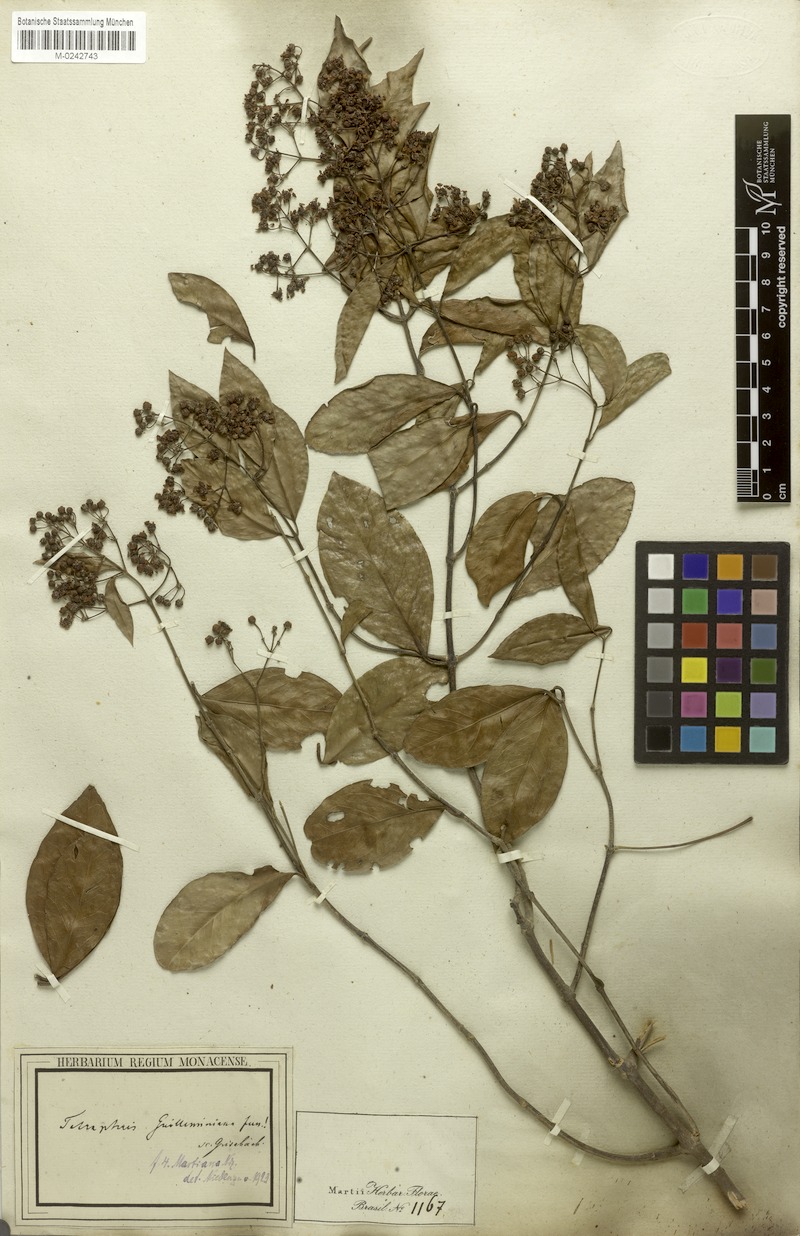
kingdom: Plantae
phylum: Tracheophyta
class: Magnoliopsida
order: Malpighiales
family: Malpighiaceae
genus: Niedenzuella
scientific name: Niedenzuella acutifolia
